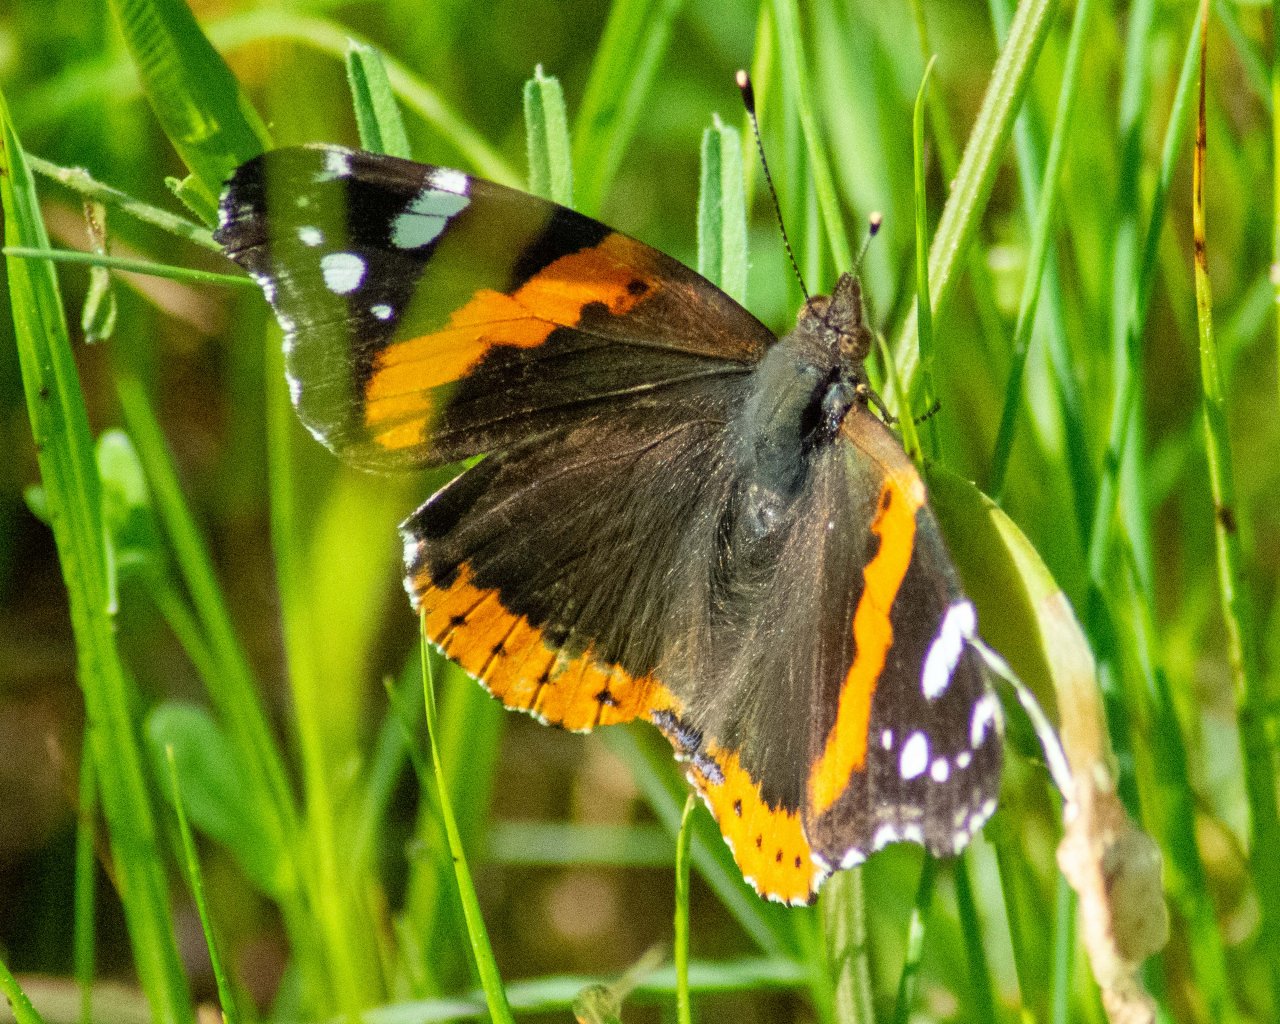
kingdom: Animalia
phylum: Arthropoda
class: Insecta
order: Lepidoptera
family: Nymphalidae
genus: Vanessa
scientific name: Vanessa atalanta
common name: Red Admiral
